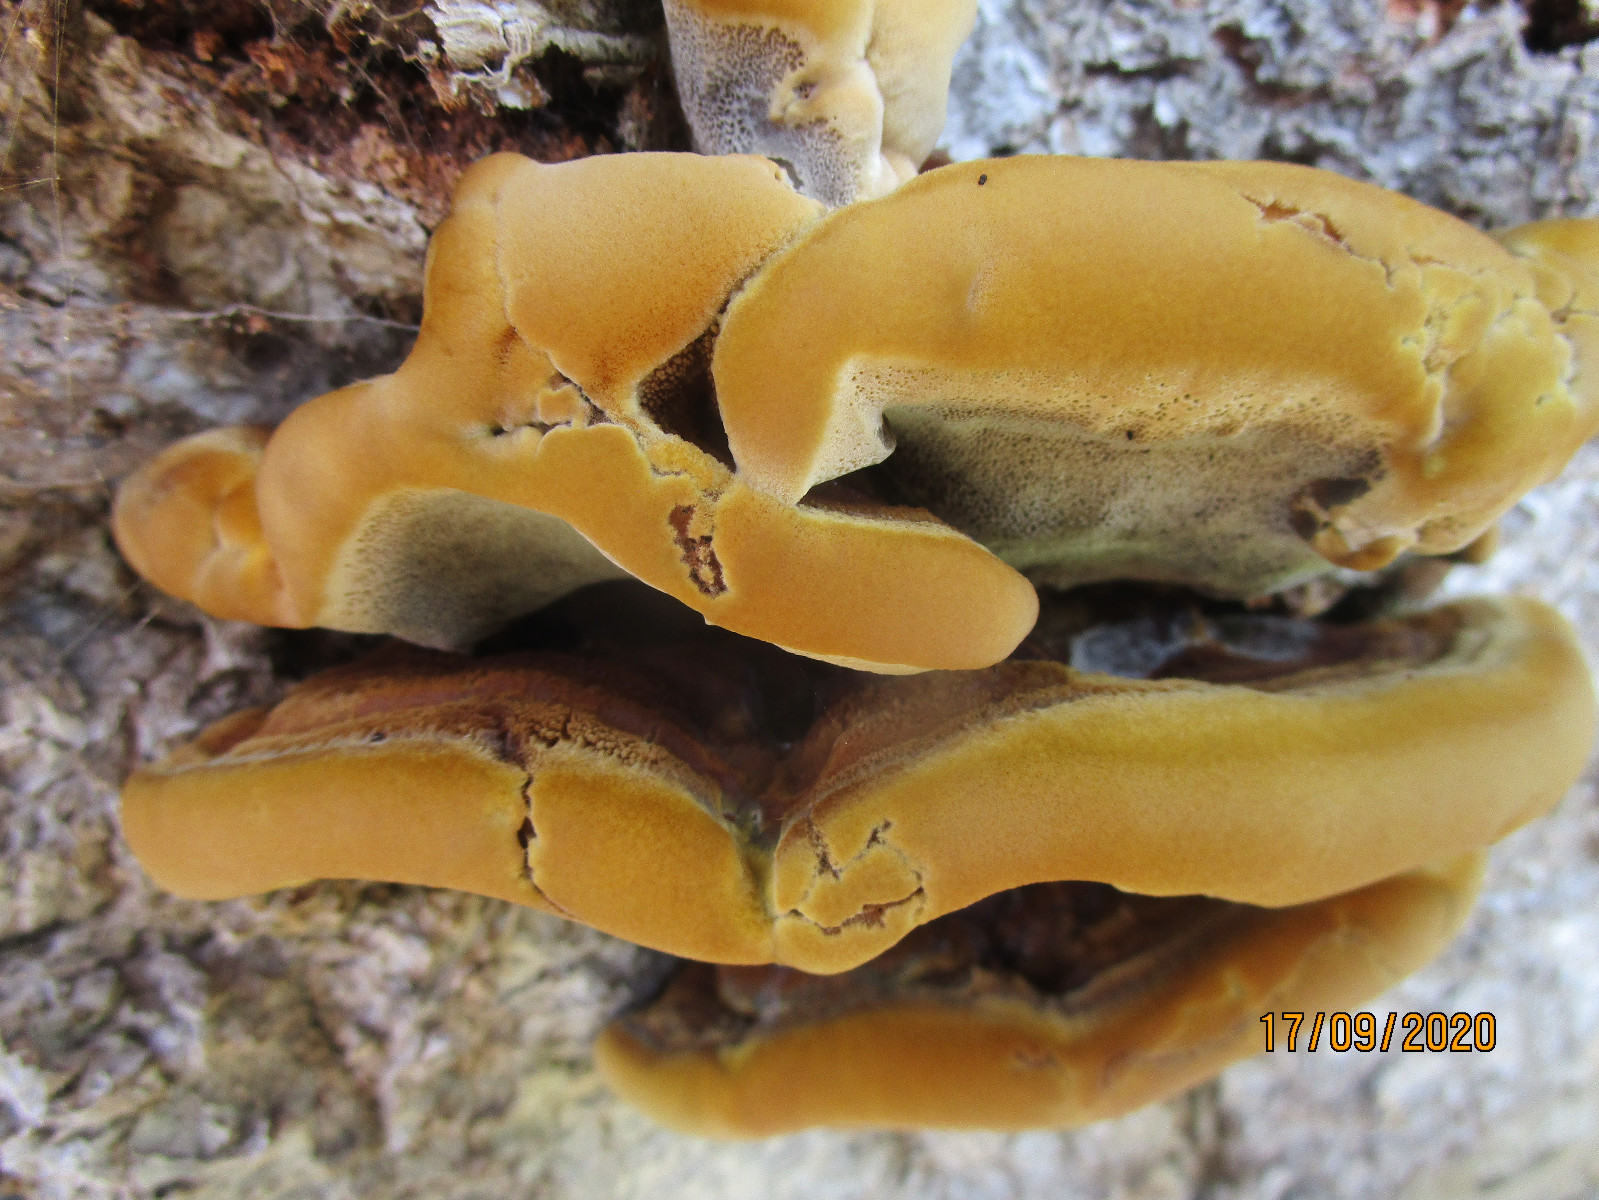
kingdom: Fungi
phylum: Basidiomycota
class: Agaricomycetes
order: Hymenochaetales
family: Hymenochaetaceae
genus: Inonotus
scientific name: Inonotus cuticularis
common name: kroghåret spejlporesvamp
